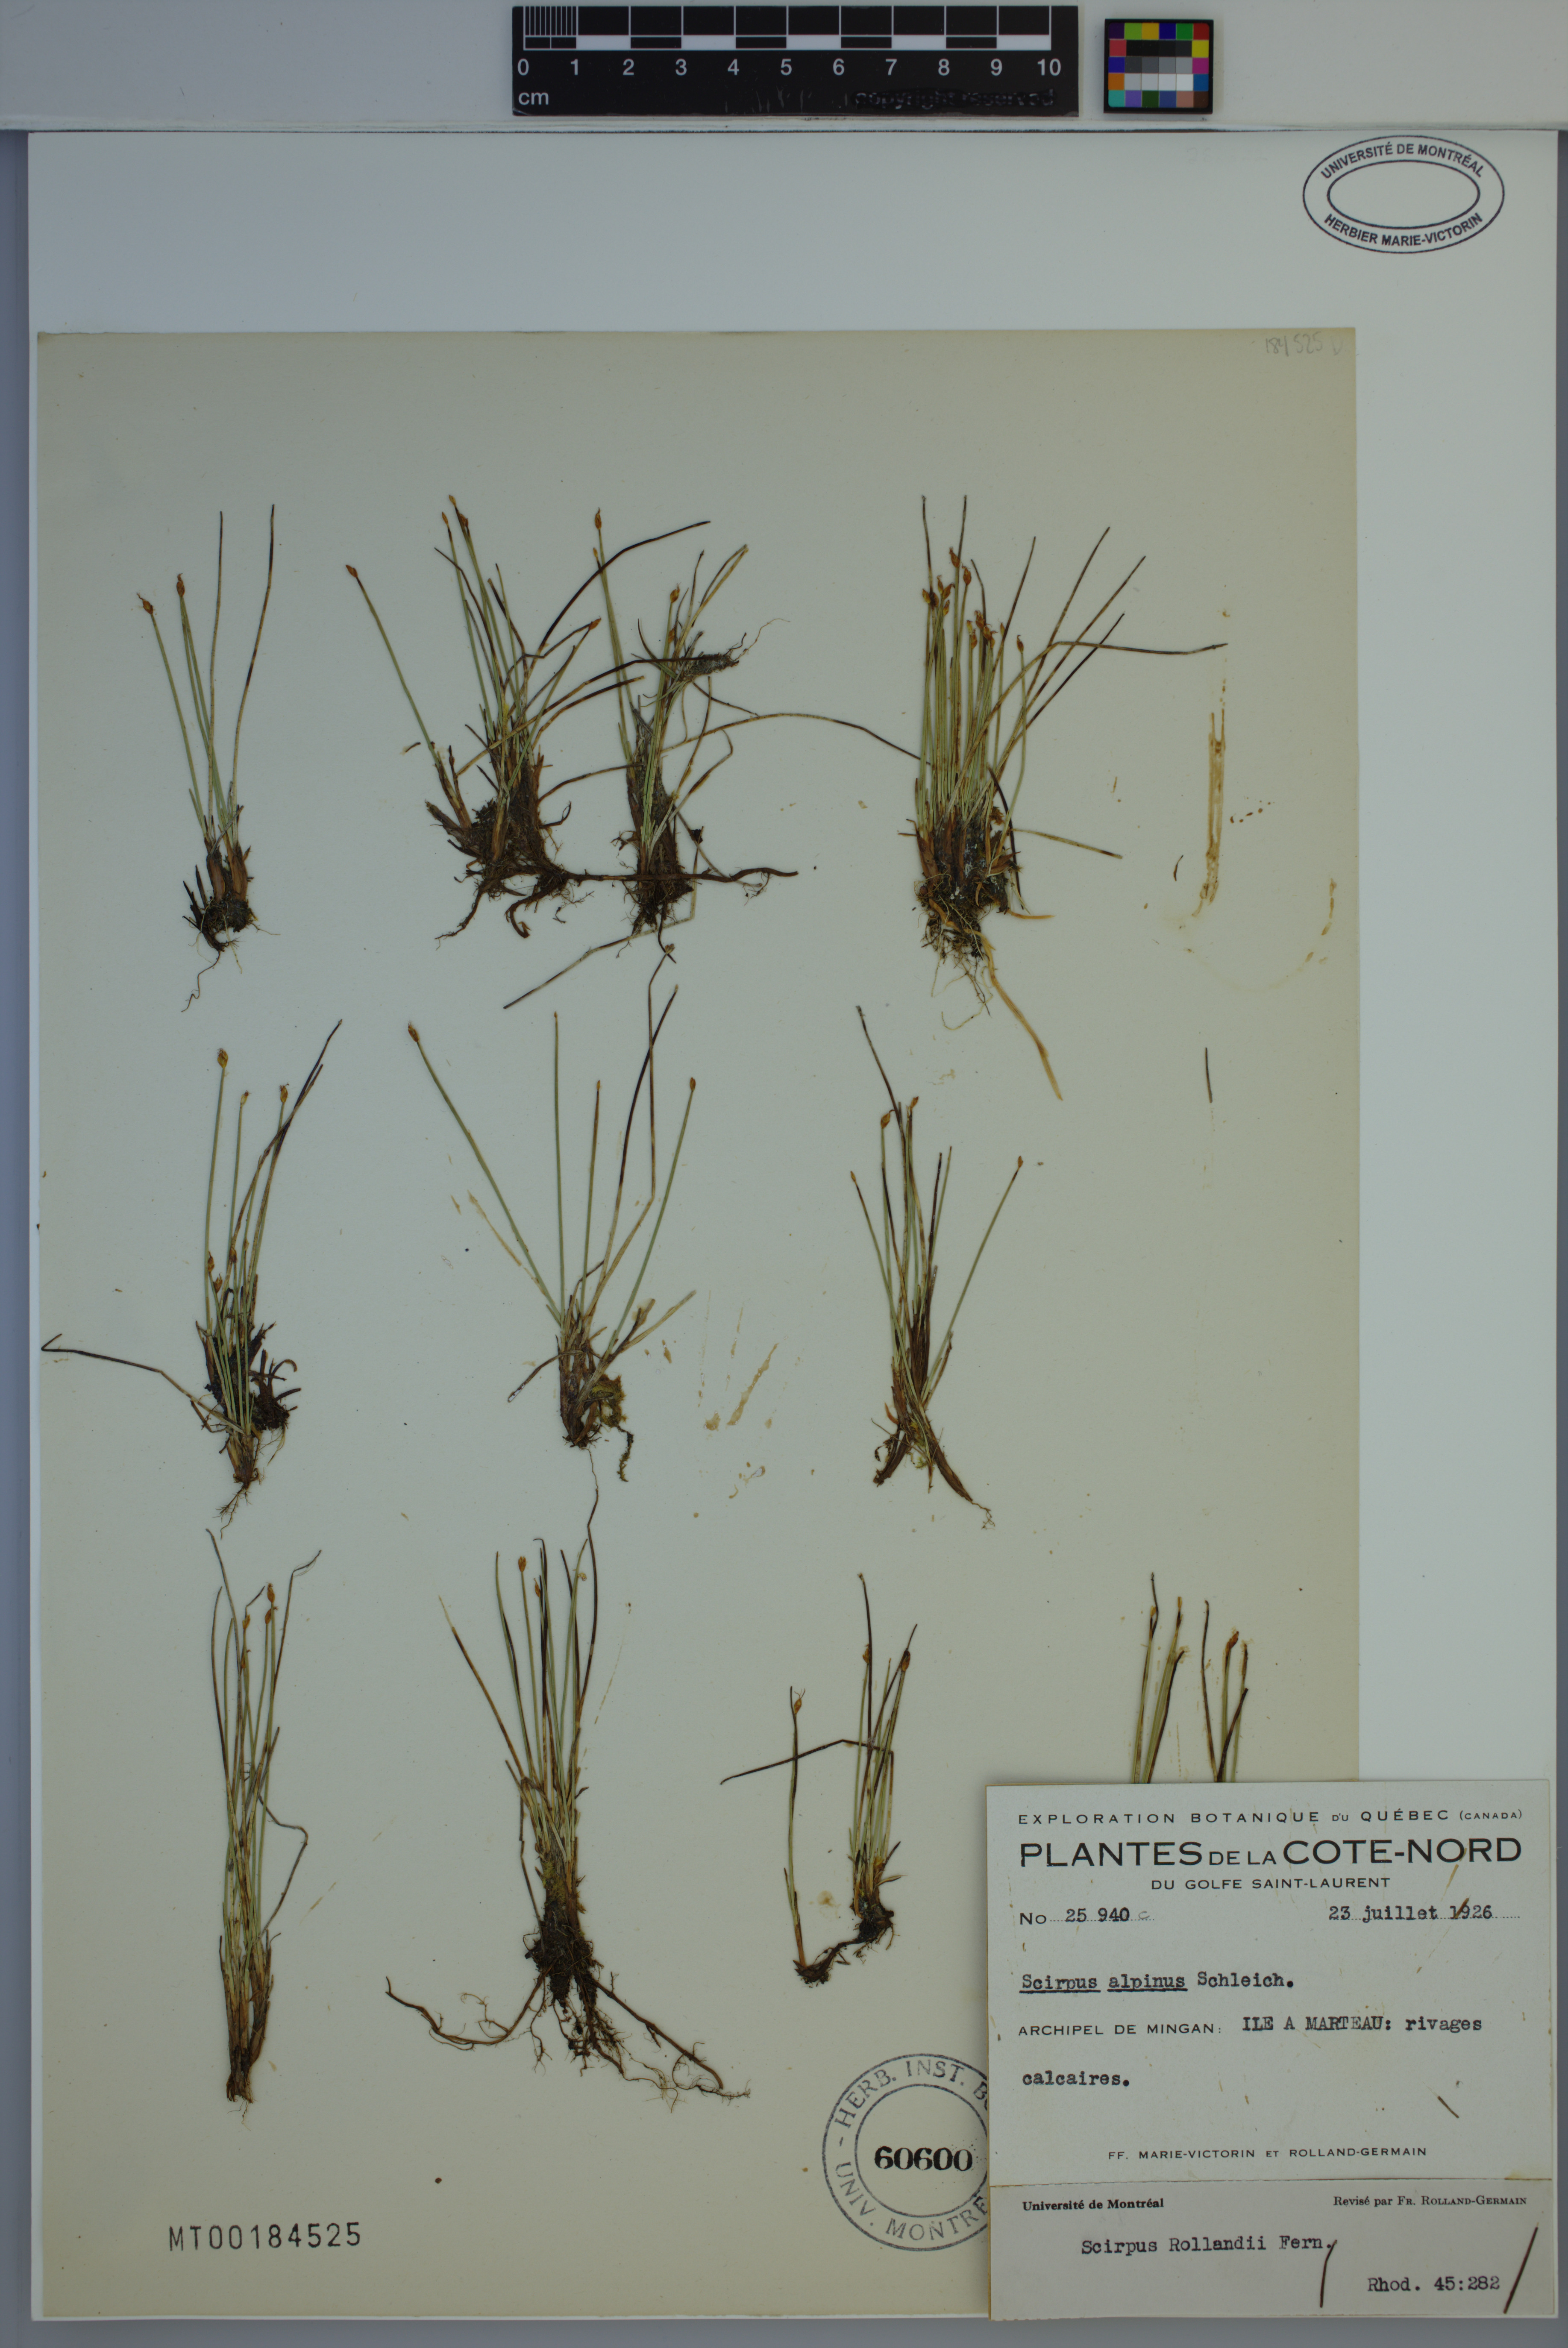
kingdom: Plantae
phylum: Tracheophyta
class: Liliopsida
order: Poales
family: Cyperaceae
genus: Trichophorum
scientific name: Trichophorum pumilum
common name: Rolland's bulrush
